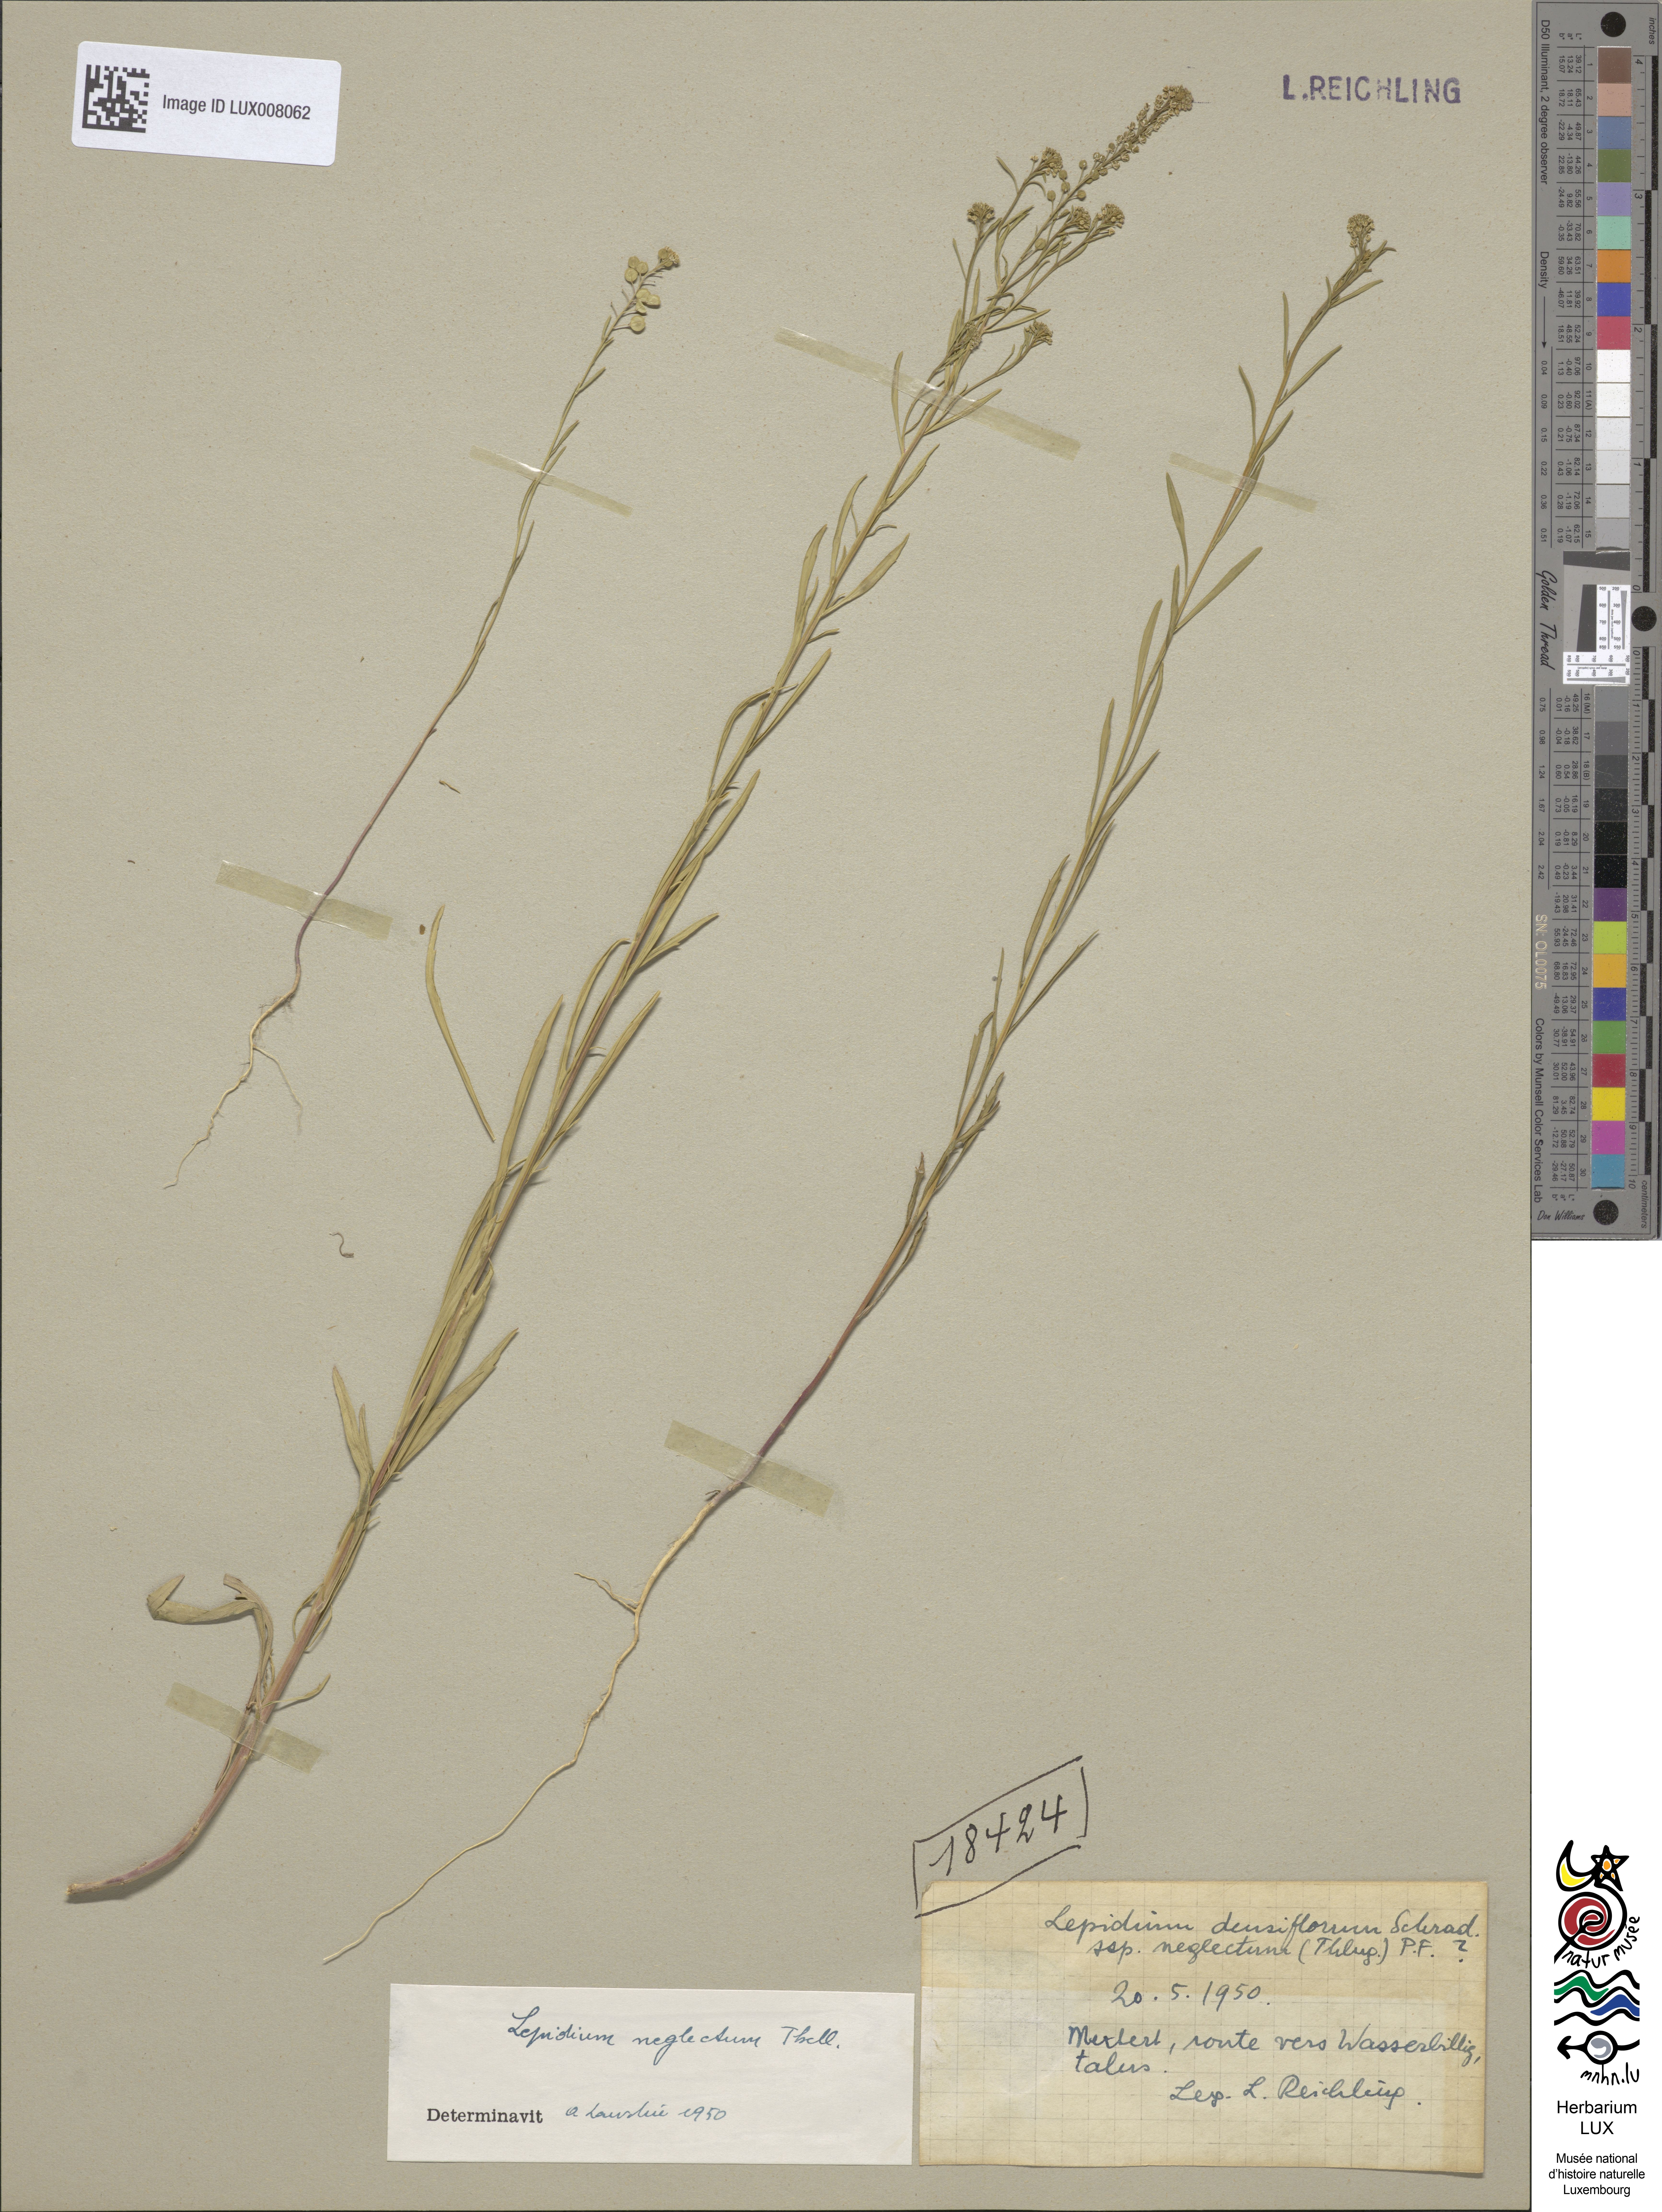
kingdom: Plantae
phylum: Tracheophyta
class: Magnoliopsida
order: Brassicales
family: Brassicaceae
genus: Lepidium
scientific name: Lepidium densiflorum
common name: Miner's pepperwort
